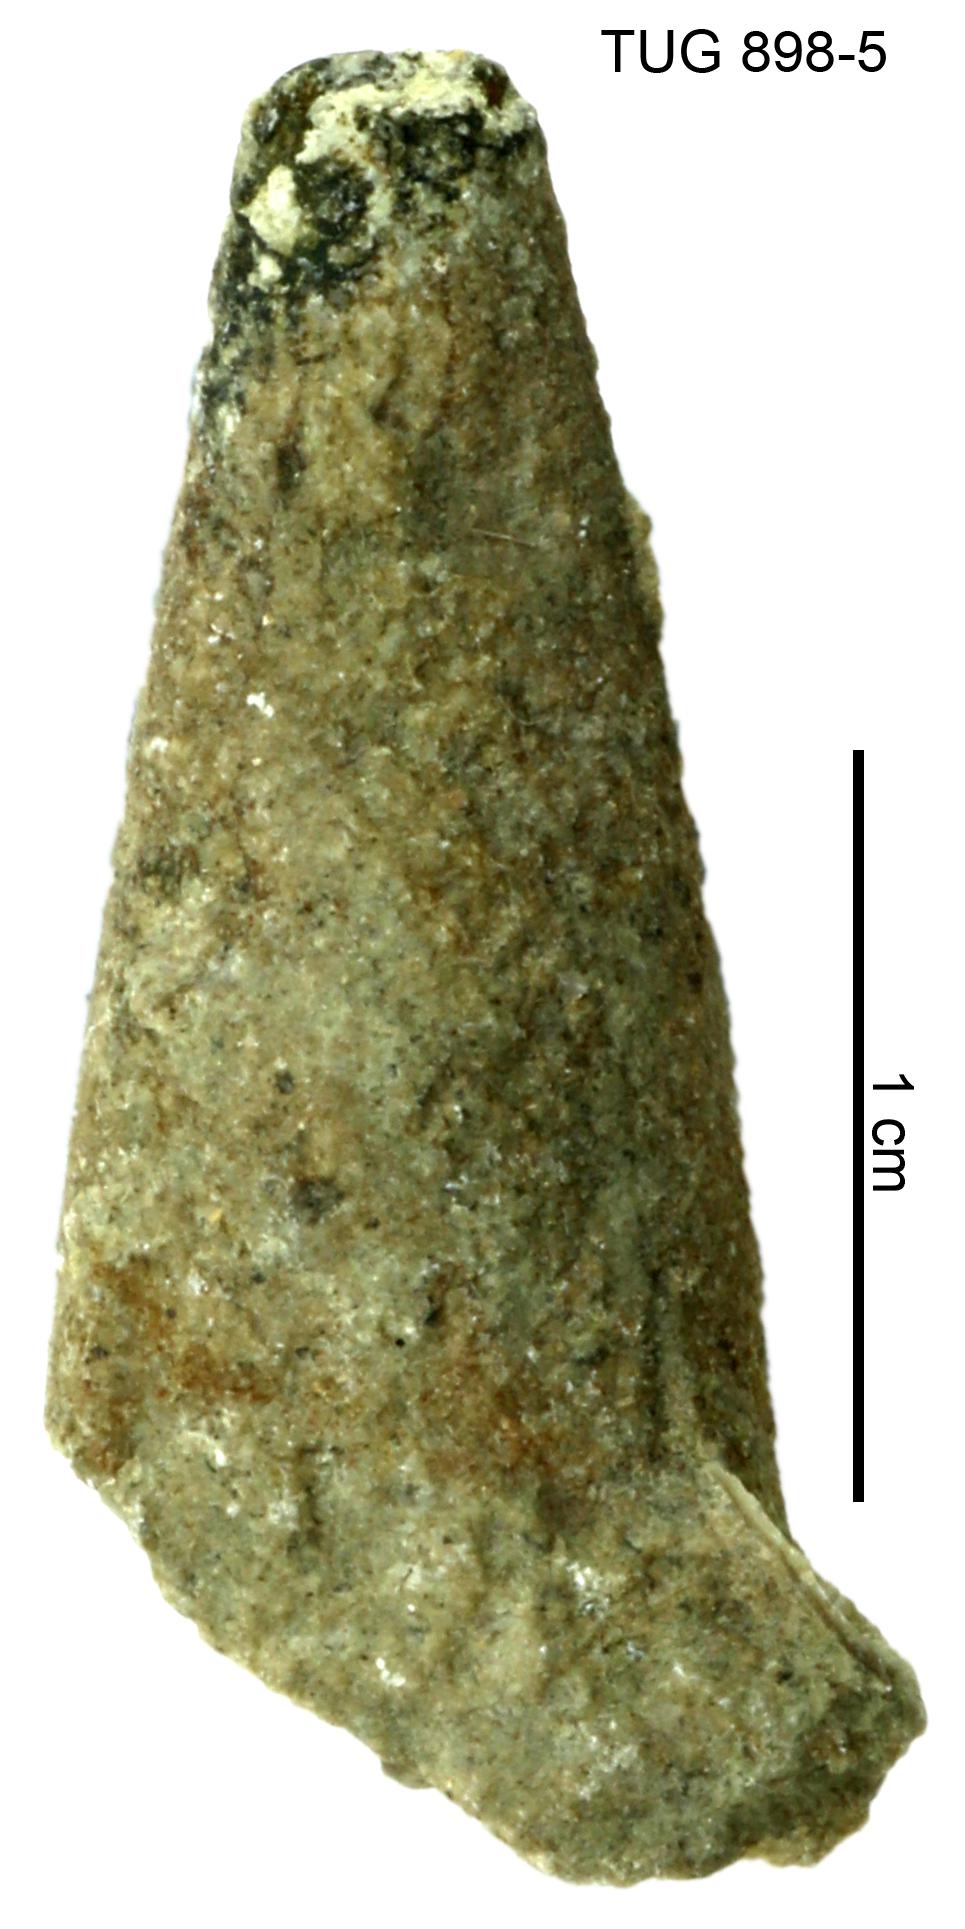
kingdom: Animalia
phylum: Annelida
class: Polychaeta
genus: Hyolithes
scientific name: Hyolithes
